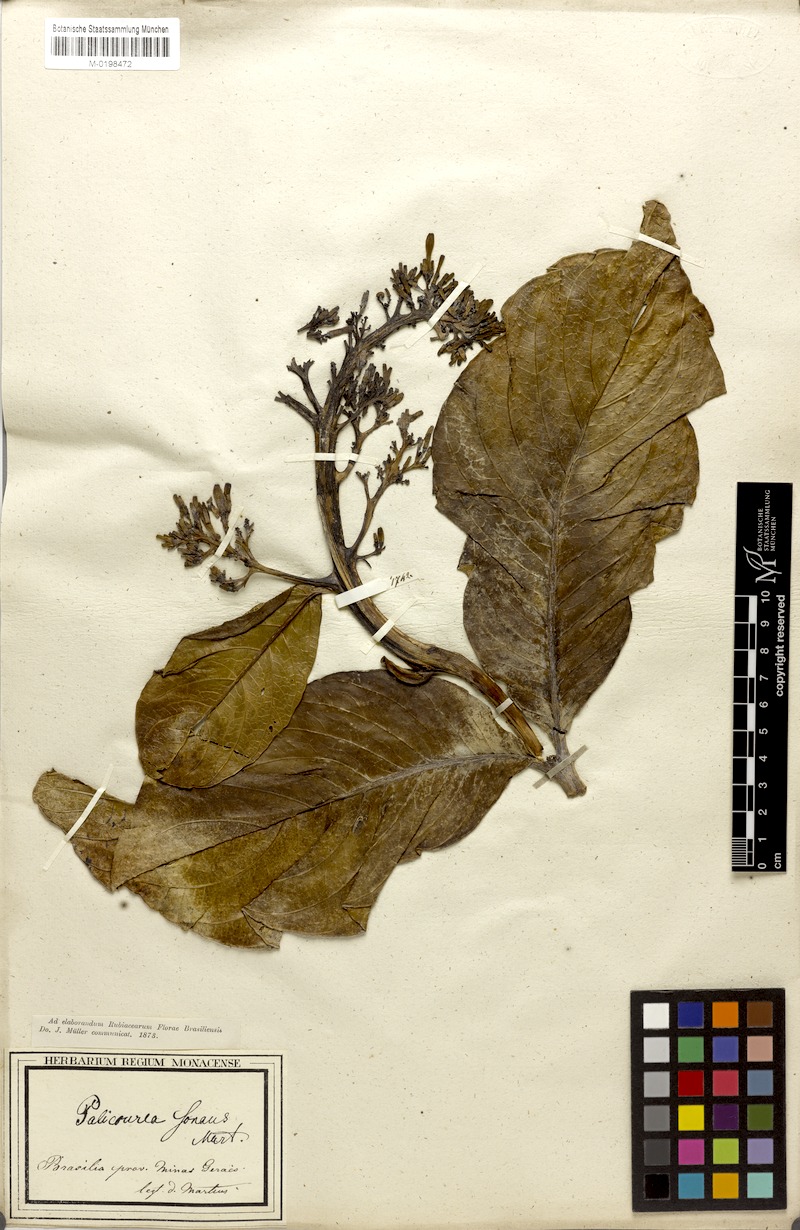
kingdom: Plantae
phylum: Tracheophyta
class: Magnoliopsida
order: Gentianales
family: Rubiaceae
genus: Palicourea
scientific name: Palicourea rigida
